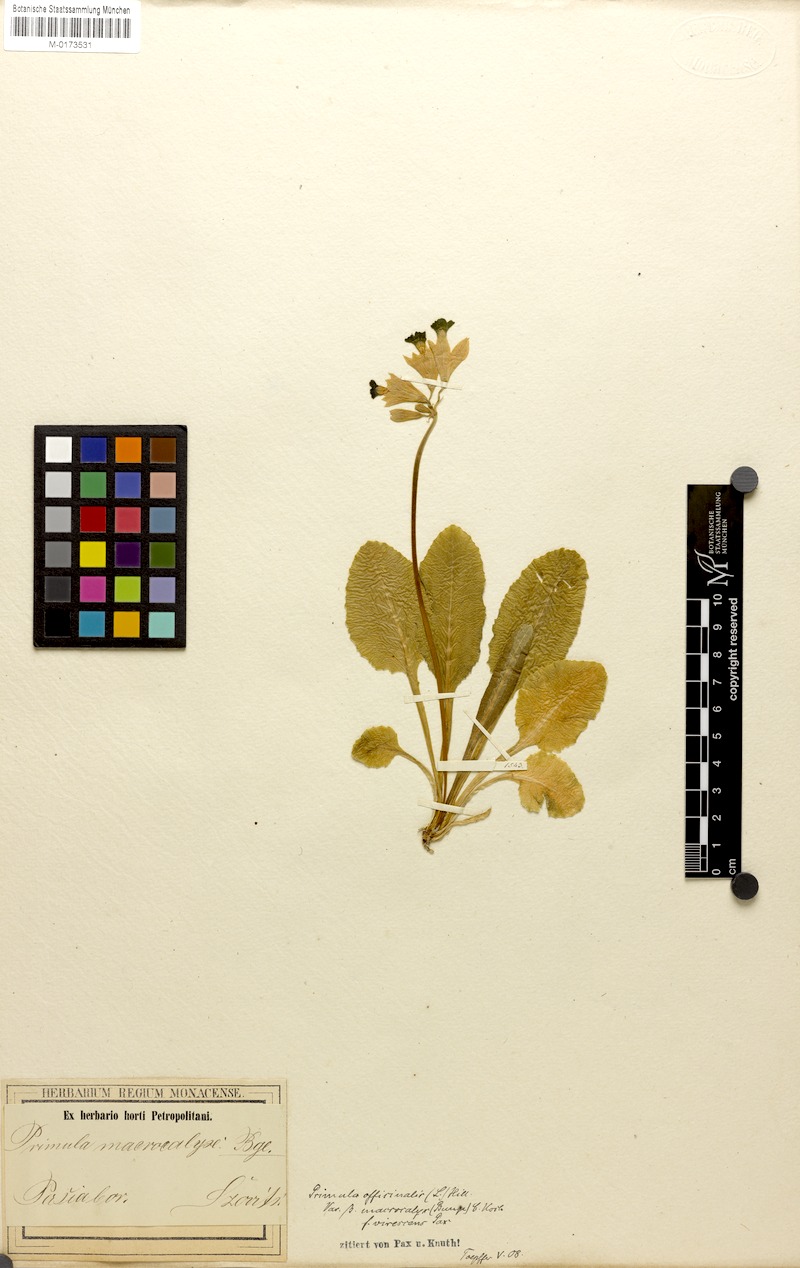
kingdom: Plantae
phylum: Tracheophyta
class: Magnoliopsida
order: Ericales
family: Primulaceae
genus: Primula
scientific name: Primula veris
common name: Cowslip
